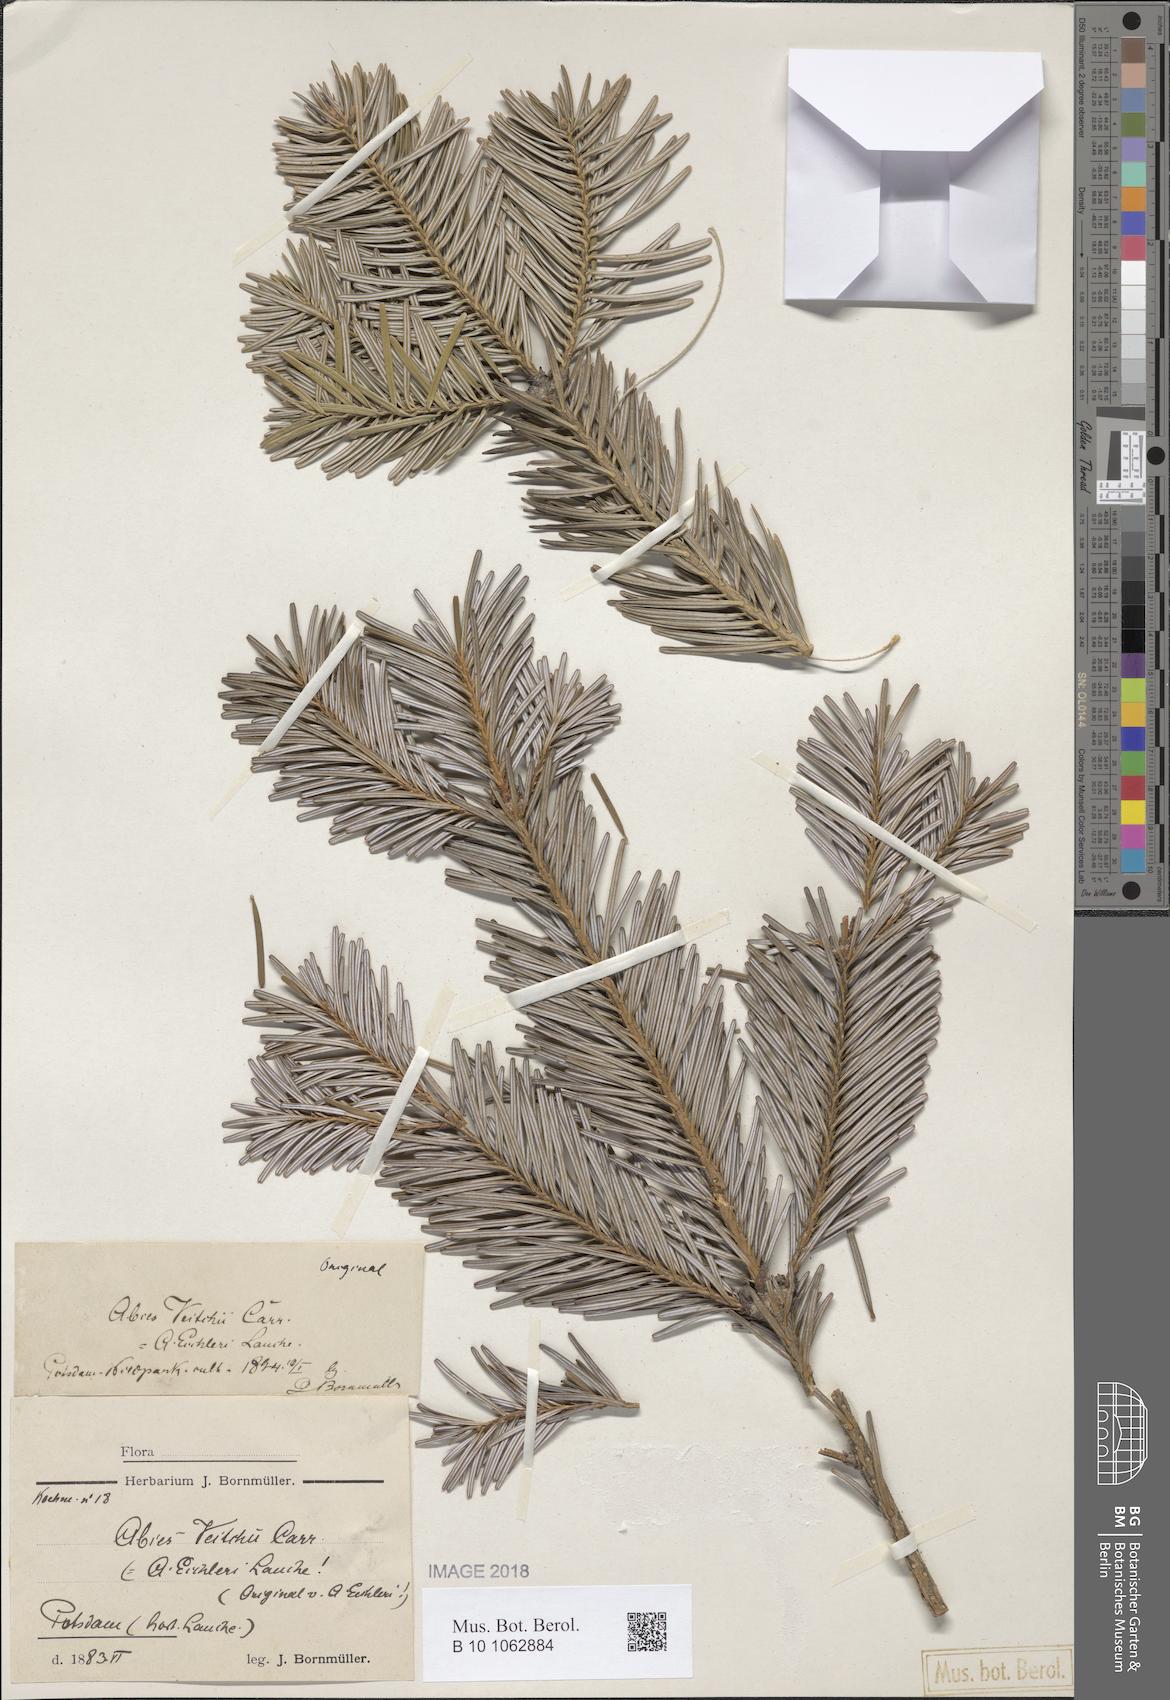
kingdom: Plantae
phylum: Tracheophyta
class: Pinopsida
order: Pinales
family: Pinaceae
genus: Abies
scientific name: Abies veitchii
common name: Veitch’s fir
